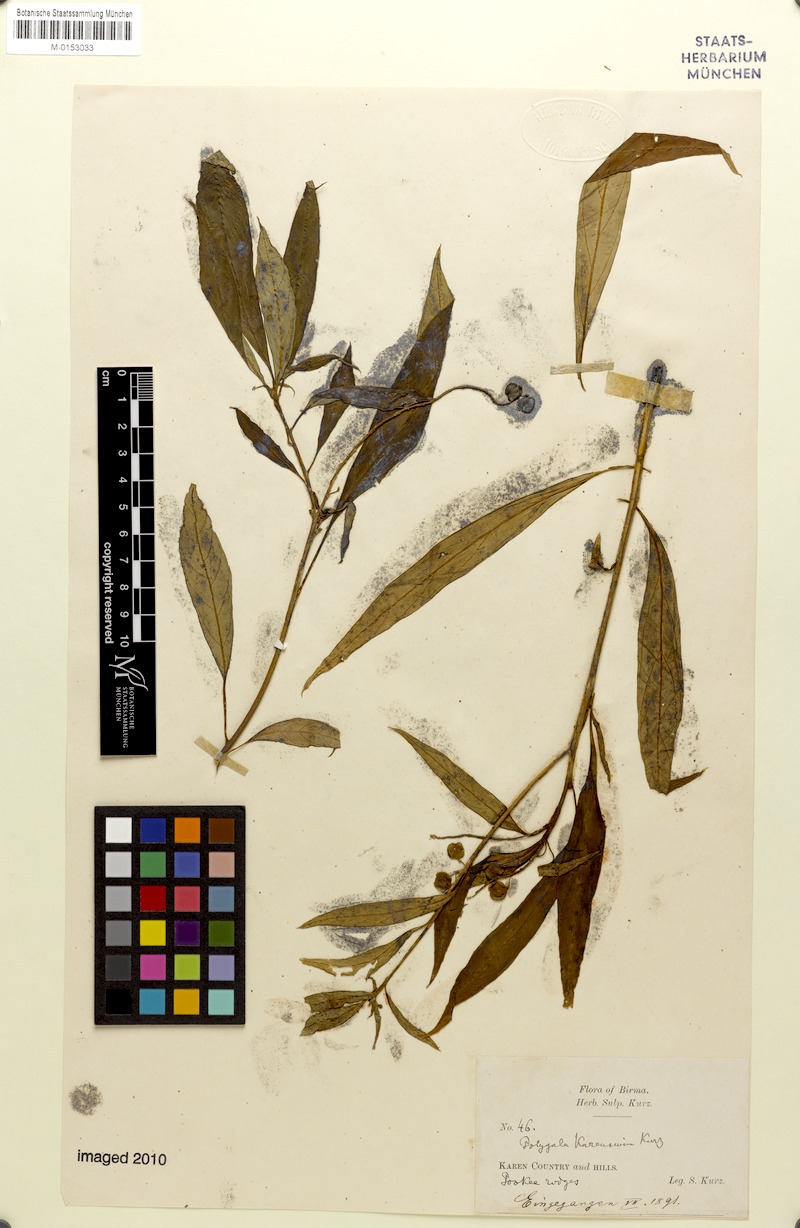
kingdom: Plantae
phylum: Tracheophyta
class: Magnoliopsida
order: Fabales
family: Polygalaceae
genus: Polygala
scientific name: Polygala karensium
